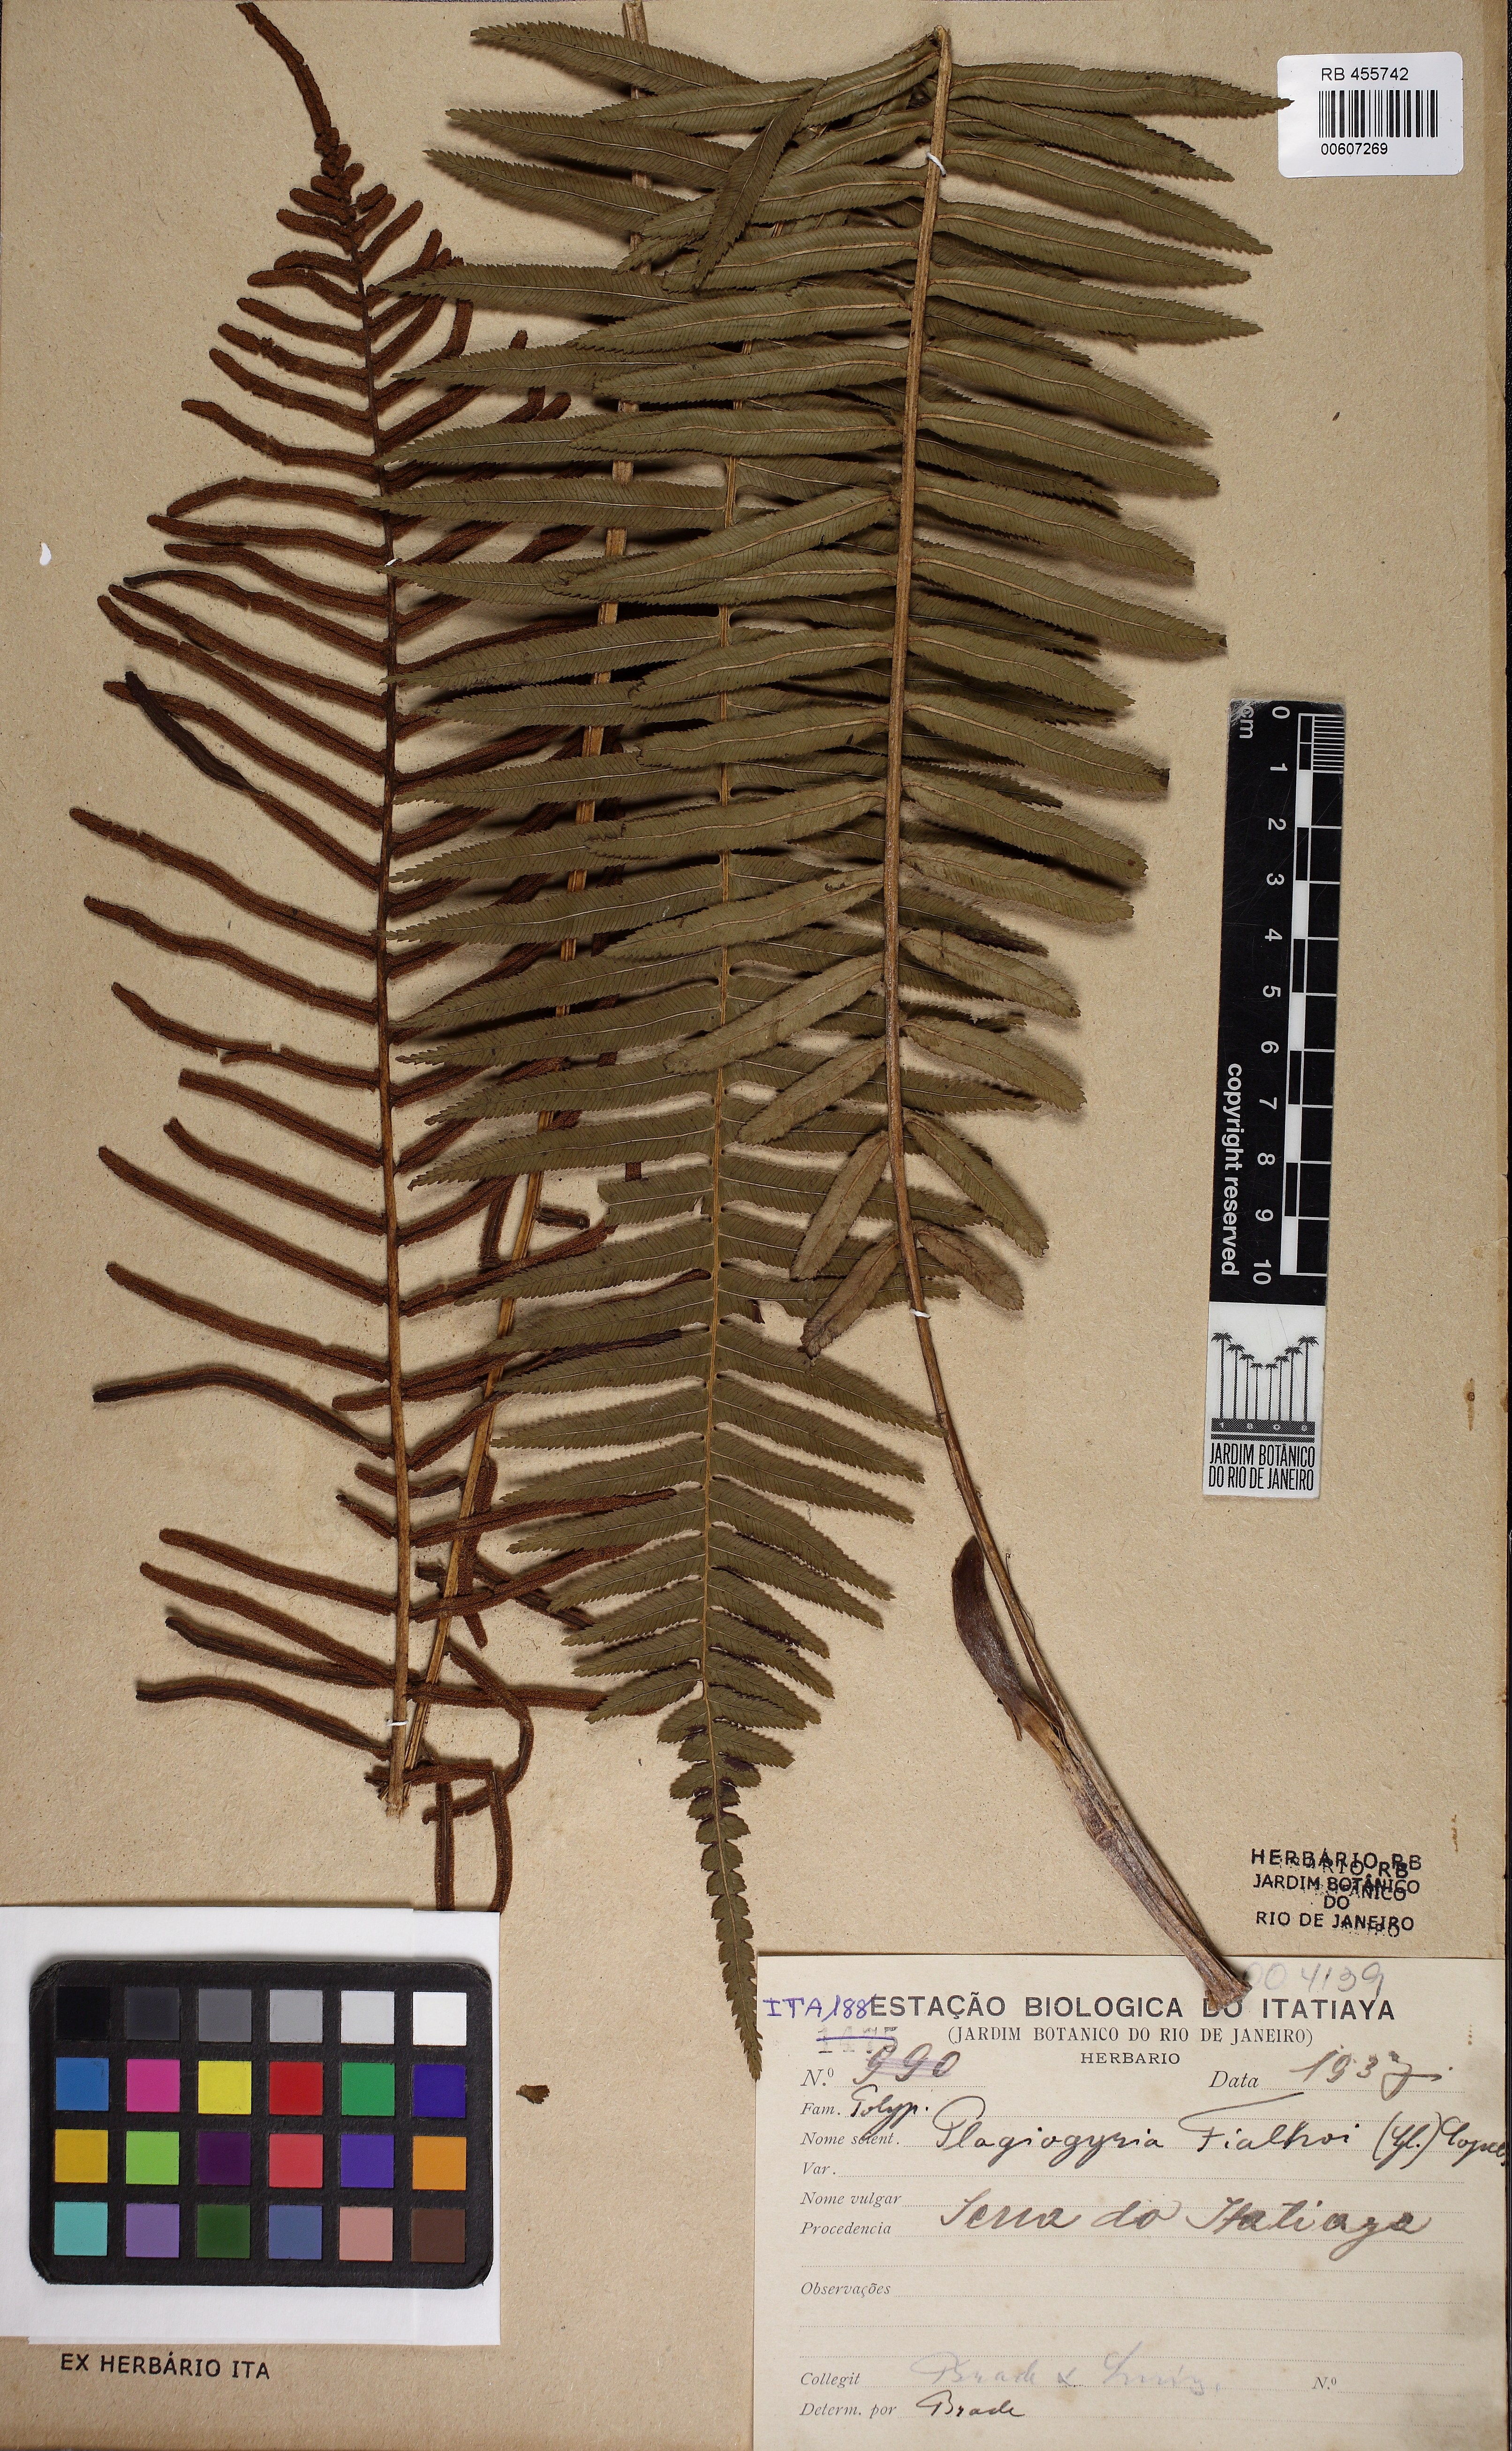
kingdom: Plantae
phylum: Tracheophyta
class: Polypodiopsida
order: Cyatheales
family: Plagiogyriaceae
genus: Plagiogyria
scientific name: Plagiogyria pectinata
